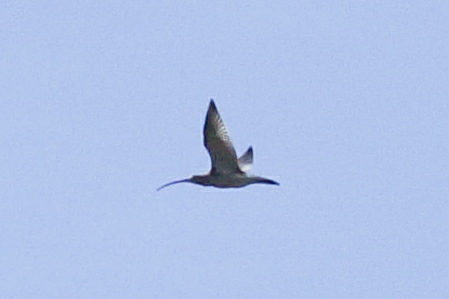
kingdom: Animalia
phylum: Chordata
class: Aves
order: Charadriiformes
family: Scolopacidae
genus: Numenius
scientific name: Numenius arquata
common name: Storspove
